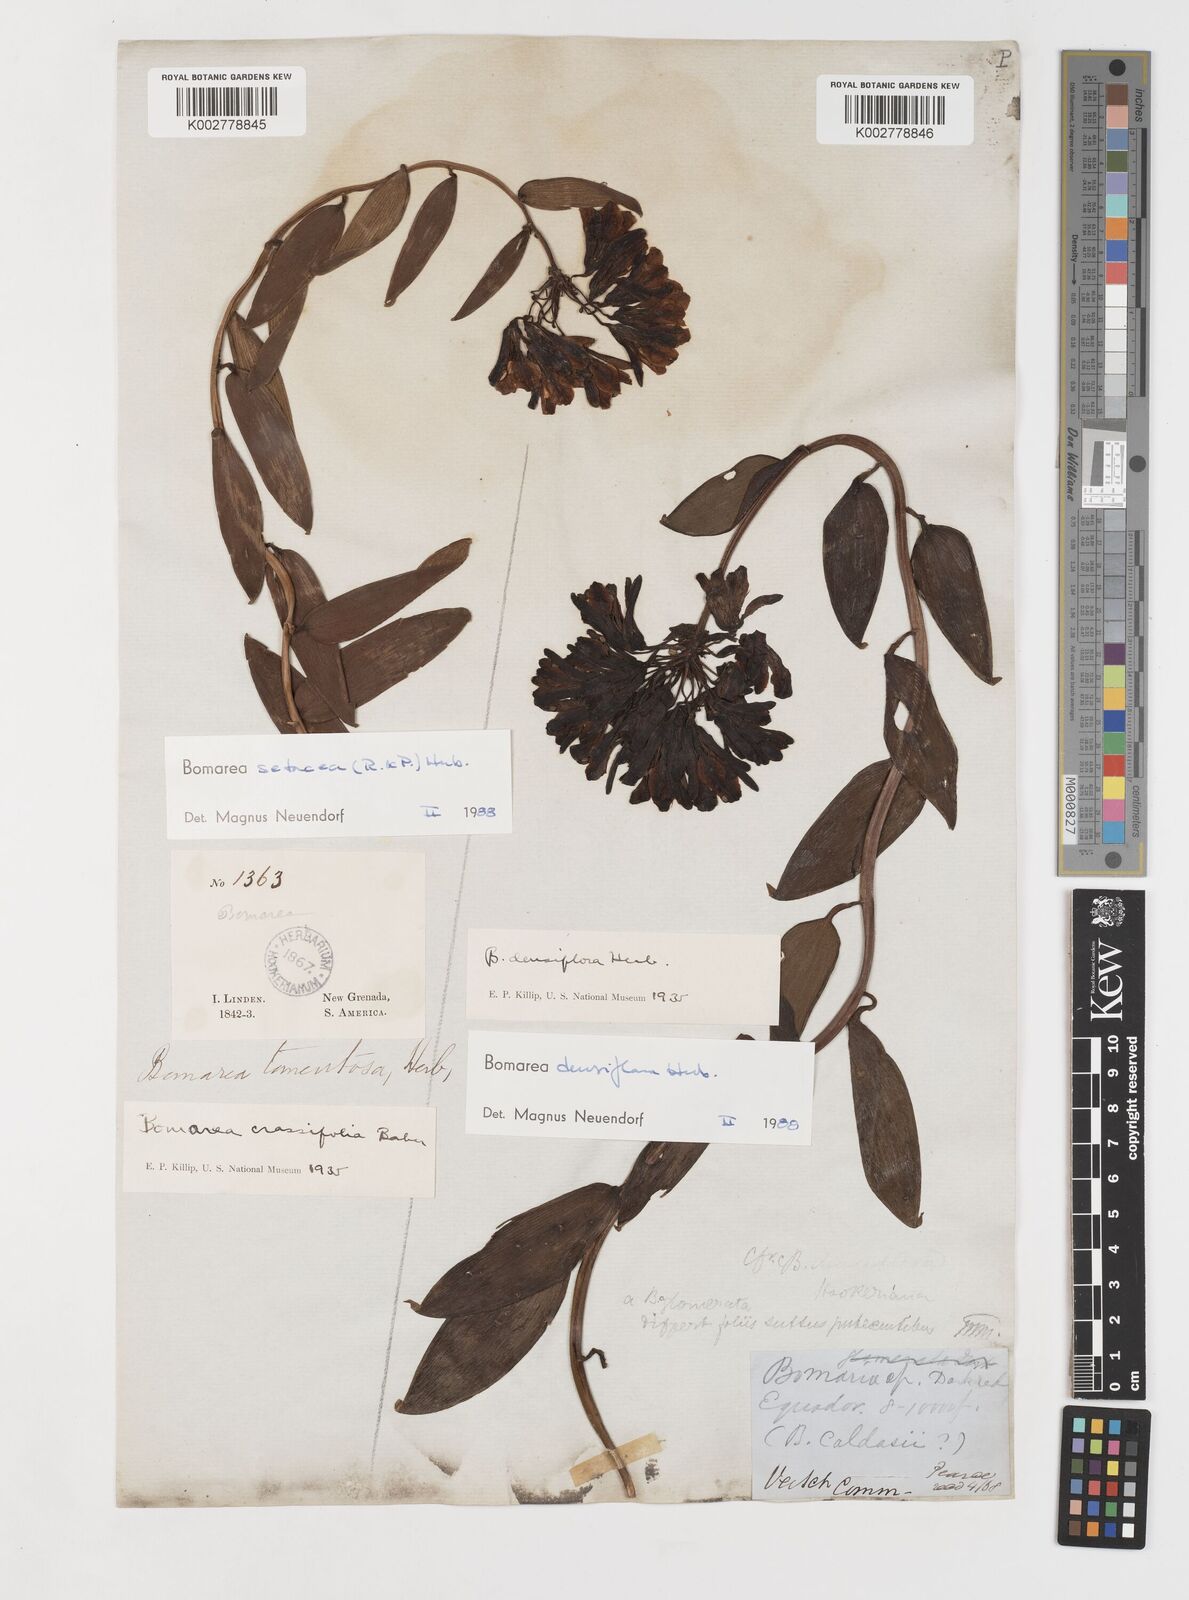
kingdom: Plantae
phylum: Tracheophyta
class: Liliopsida
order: Liliales
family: Alstroemeriaceae
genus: Bomarea
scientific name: Bomarea densiflora
